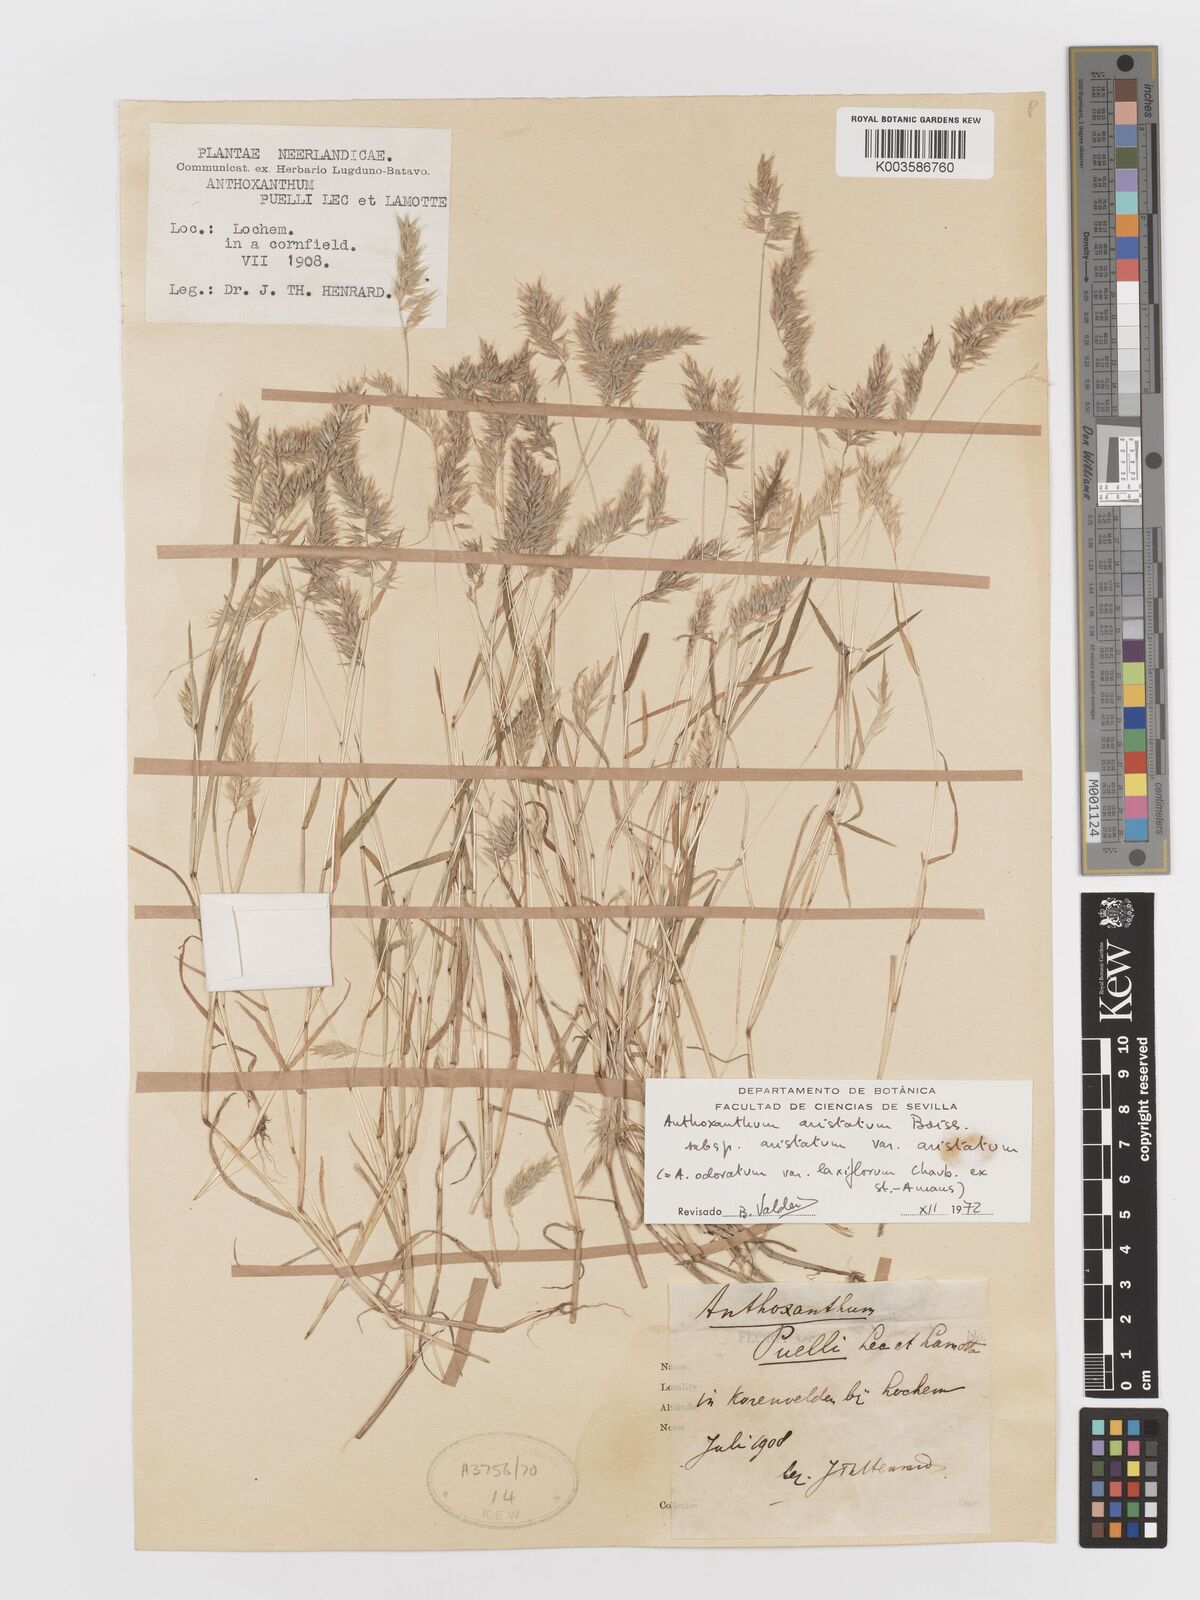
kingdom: Plantae
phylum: Tracheophyta
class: Liliopsida
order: Poales
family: Poaceae
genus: Anthoxanthum
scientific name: Anthoxanthum aristatum
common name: Annual vernal-grass
